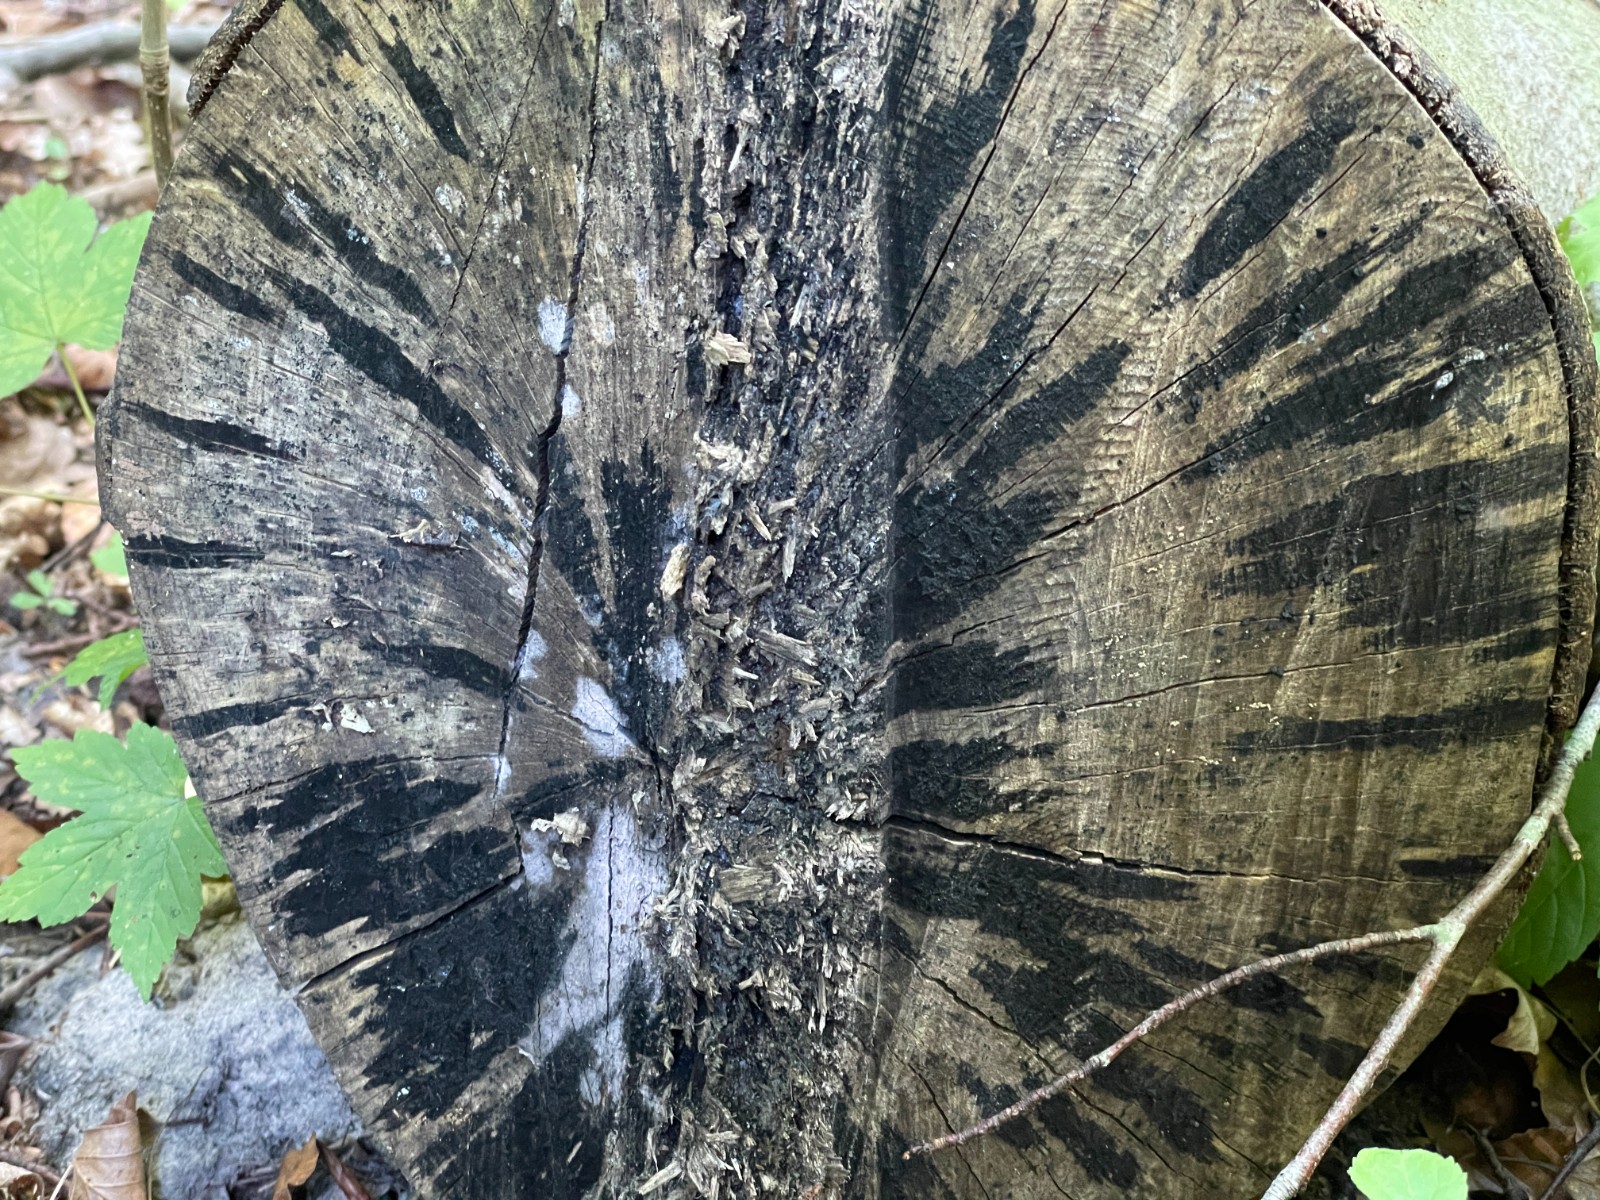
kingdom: Fungi
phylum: Ascomycota
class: Leotiomycetes
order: Helotiales
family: Helotiaceae
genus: Bispora
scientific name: Bispora pallescens
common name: måtte-snitskive
